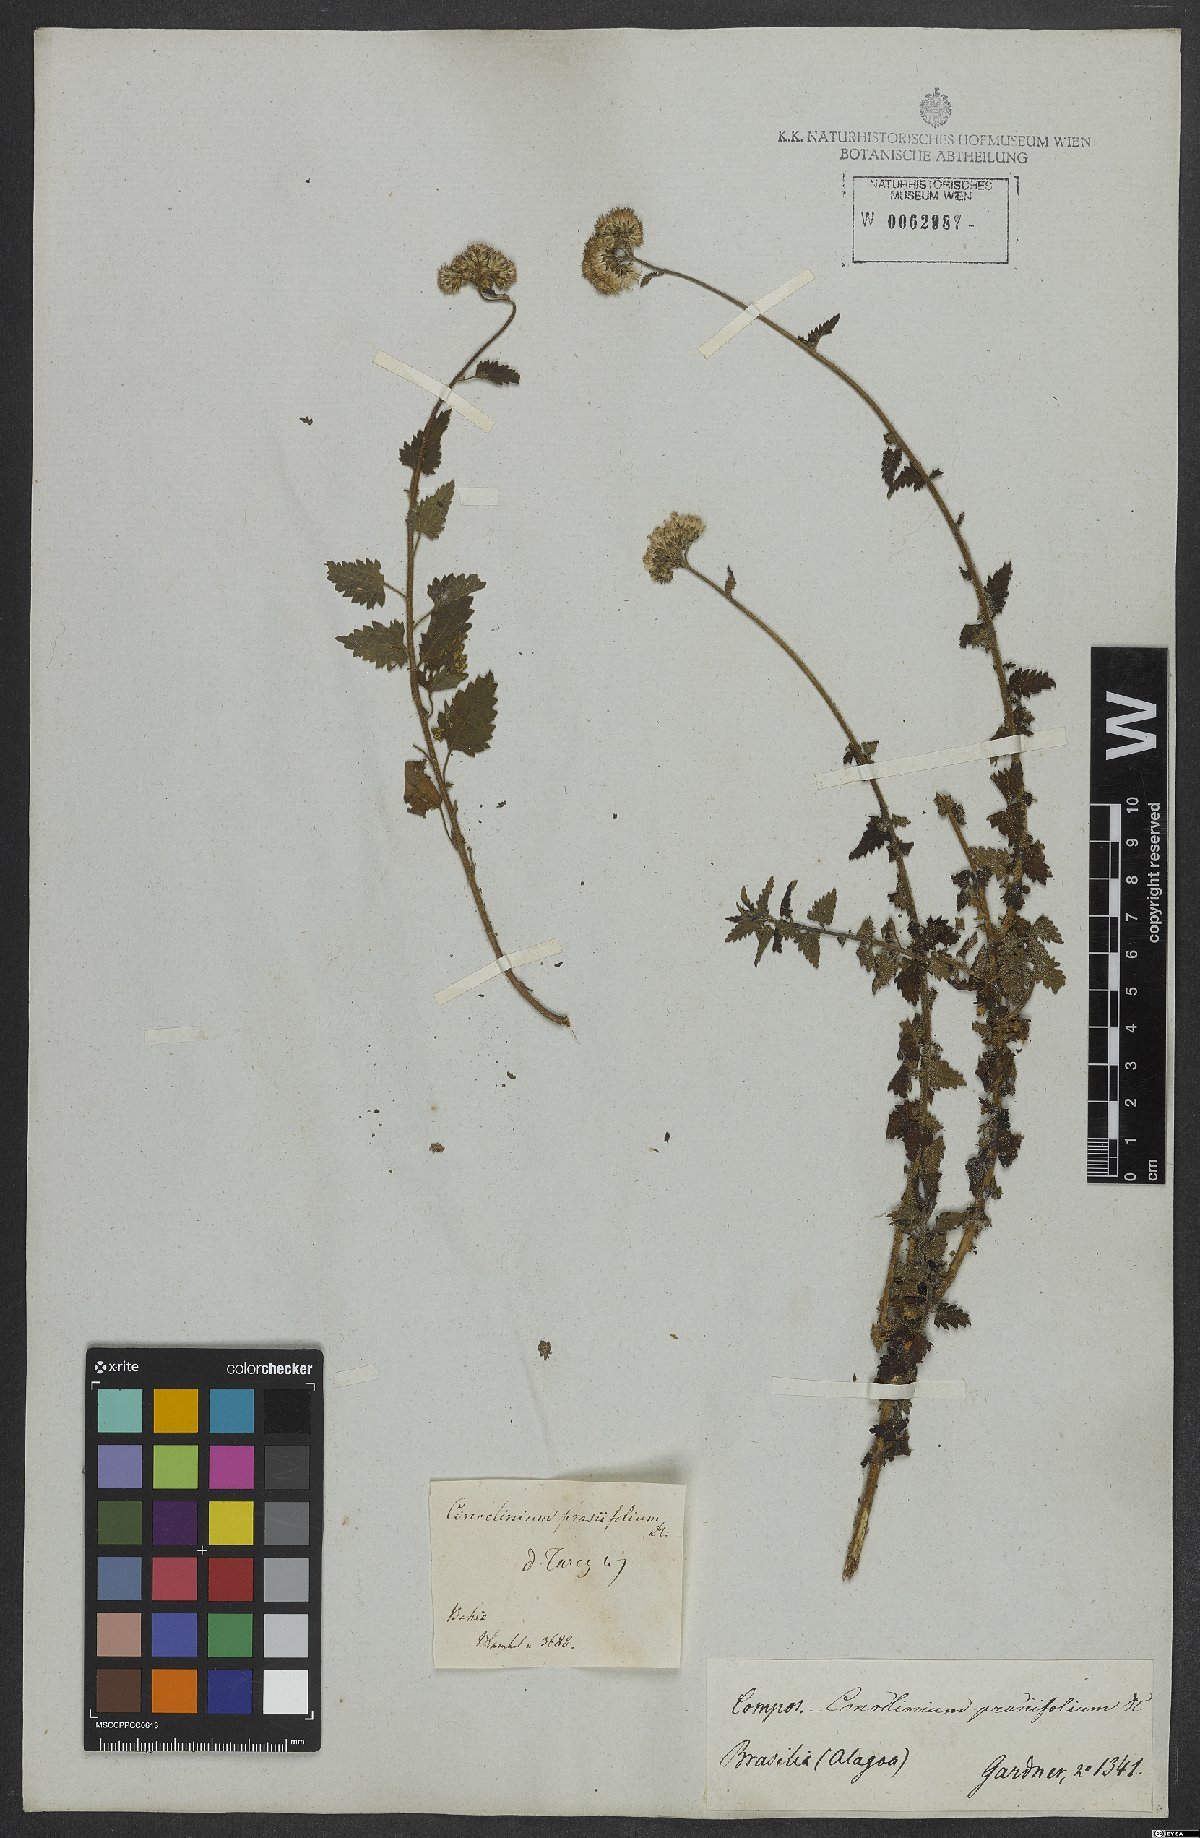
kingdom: Plantae
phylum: Tracheophyta
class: Magnoliopsida
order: Asterales
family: Asteraceae
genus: Conocliniopsis
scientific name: Conocliniopsis grossedentata
